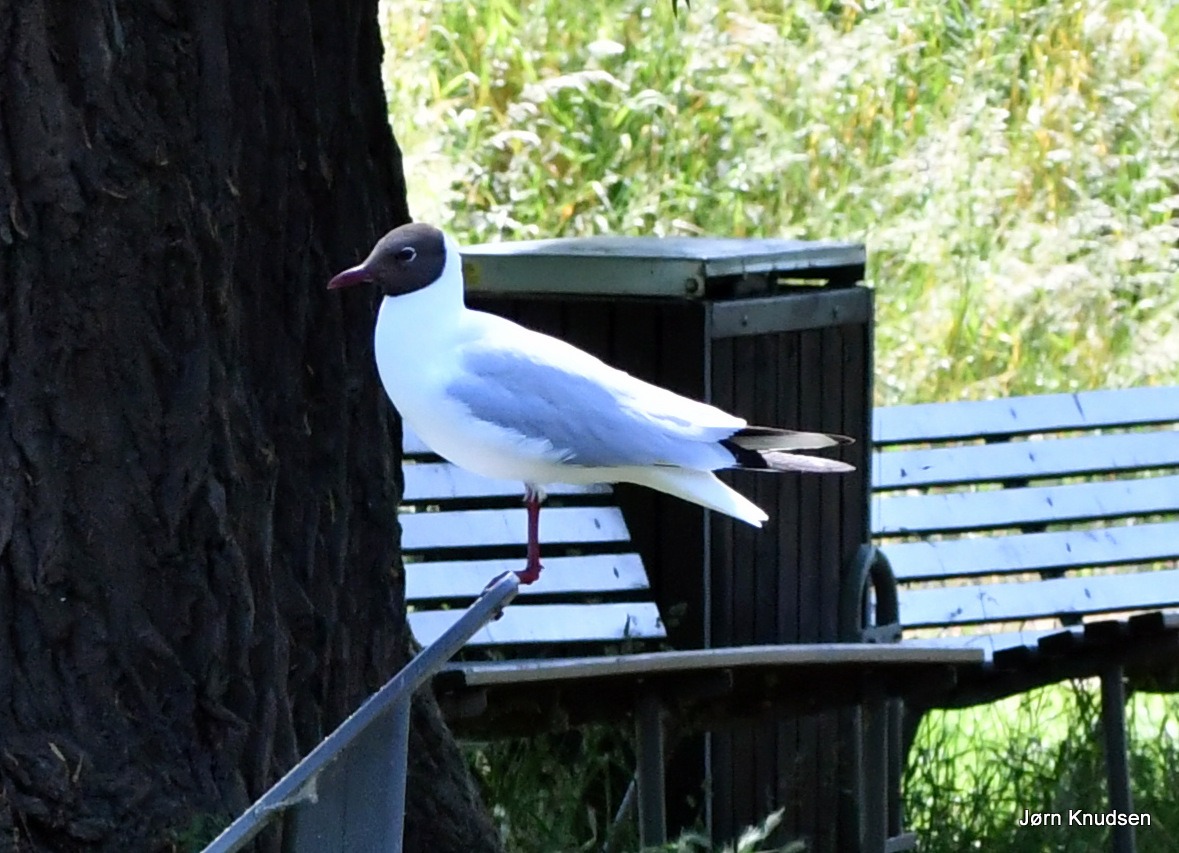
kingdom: Animalia
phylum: Chordata
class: Aves
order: Charadriiformes
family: Laridae
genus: Chroicocephalus
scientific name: Chroicocephalus ridibundus
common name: Hættemåge
